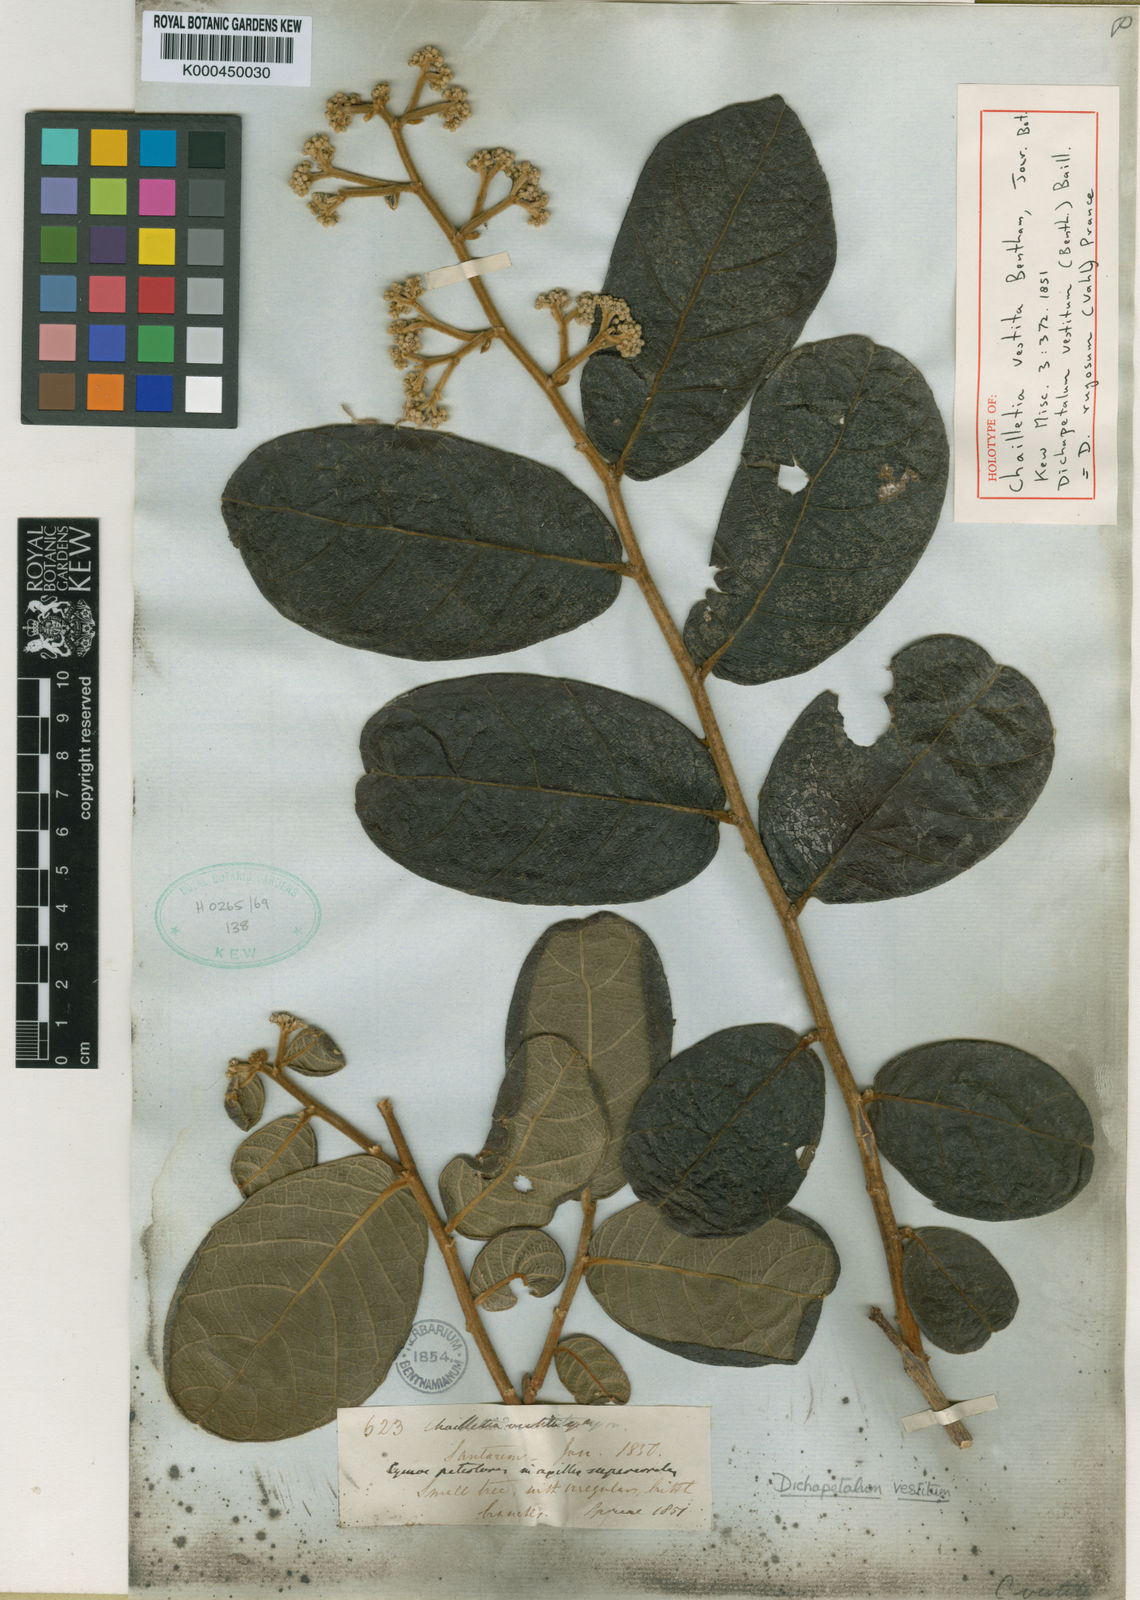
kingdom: Plantae
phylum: Tracheophyta
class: Magnoliopsida
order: Malpighiales
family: Dichapetalaceae
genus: Dichapetalum
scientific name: Dichapetalum rugosum
